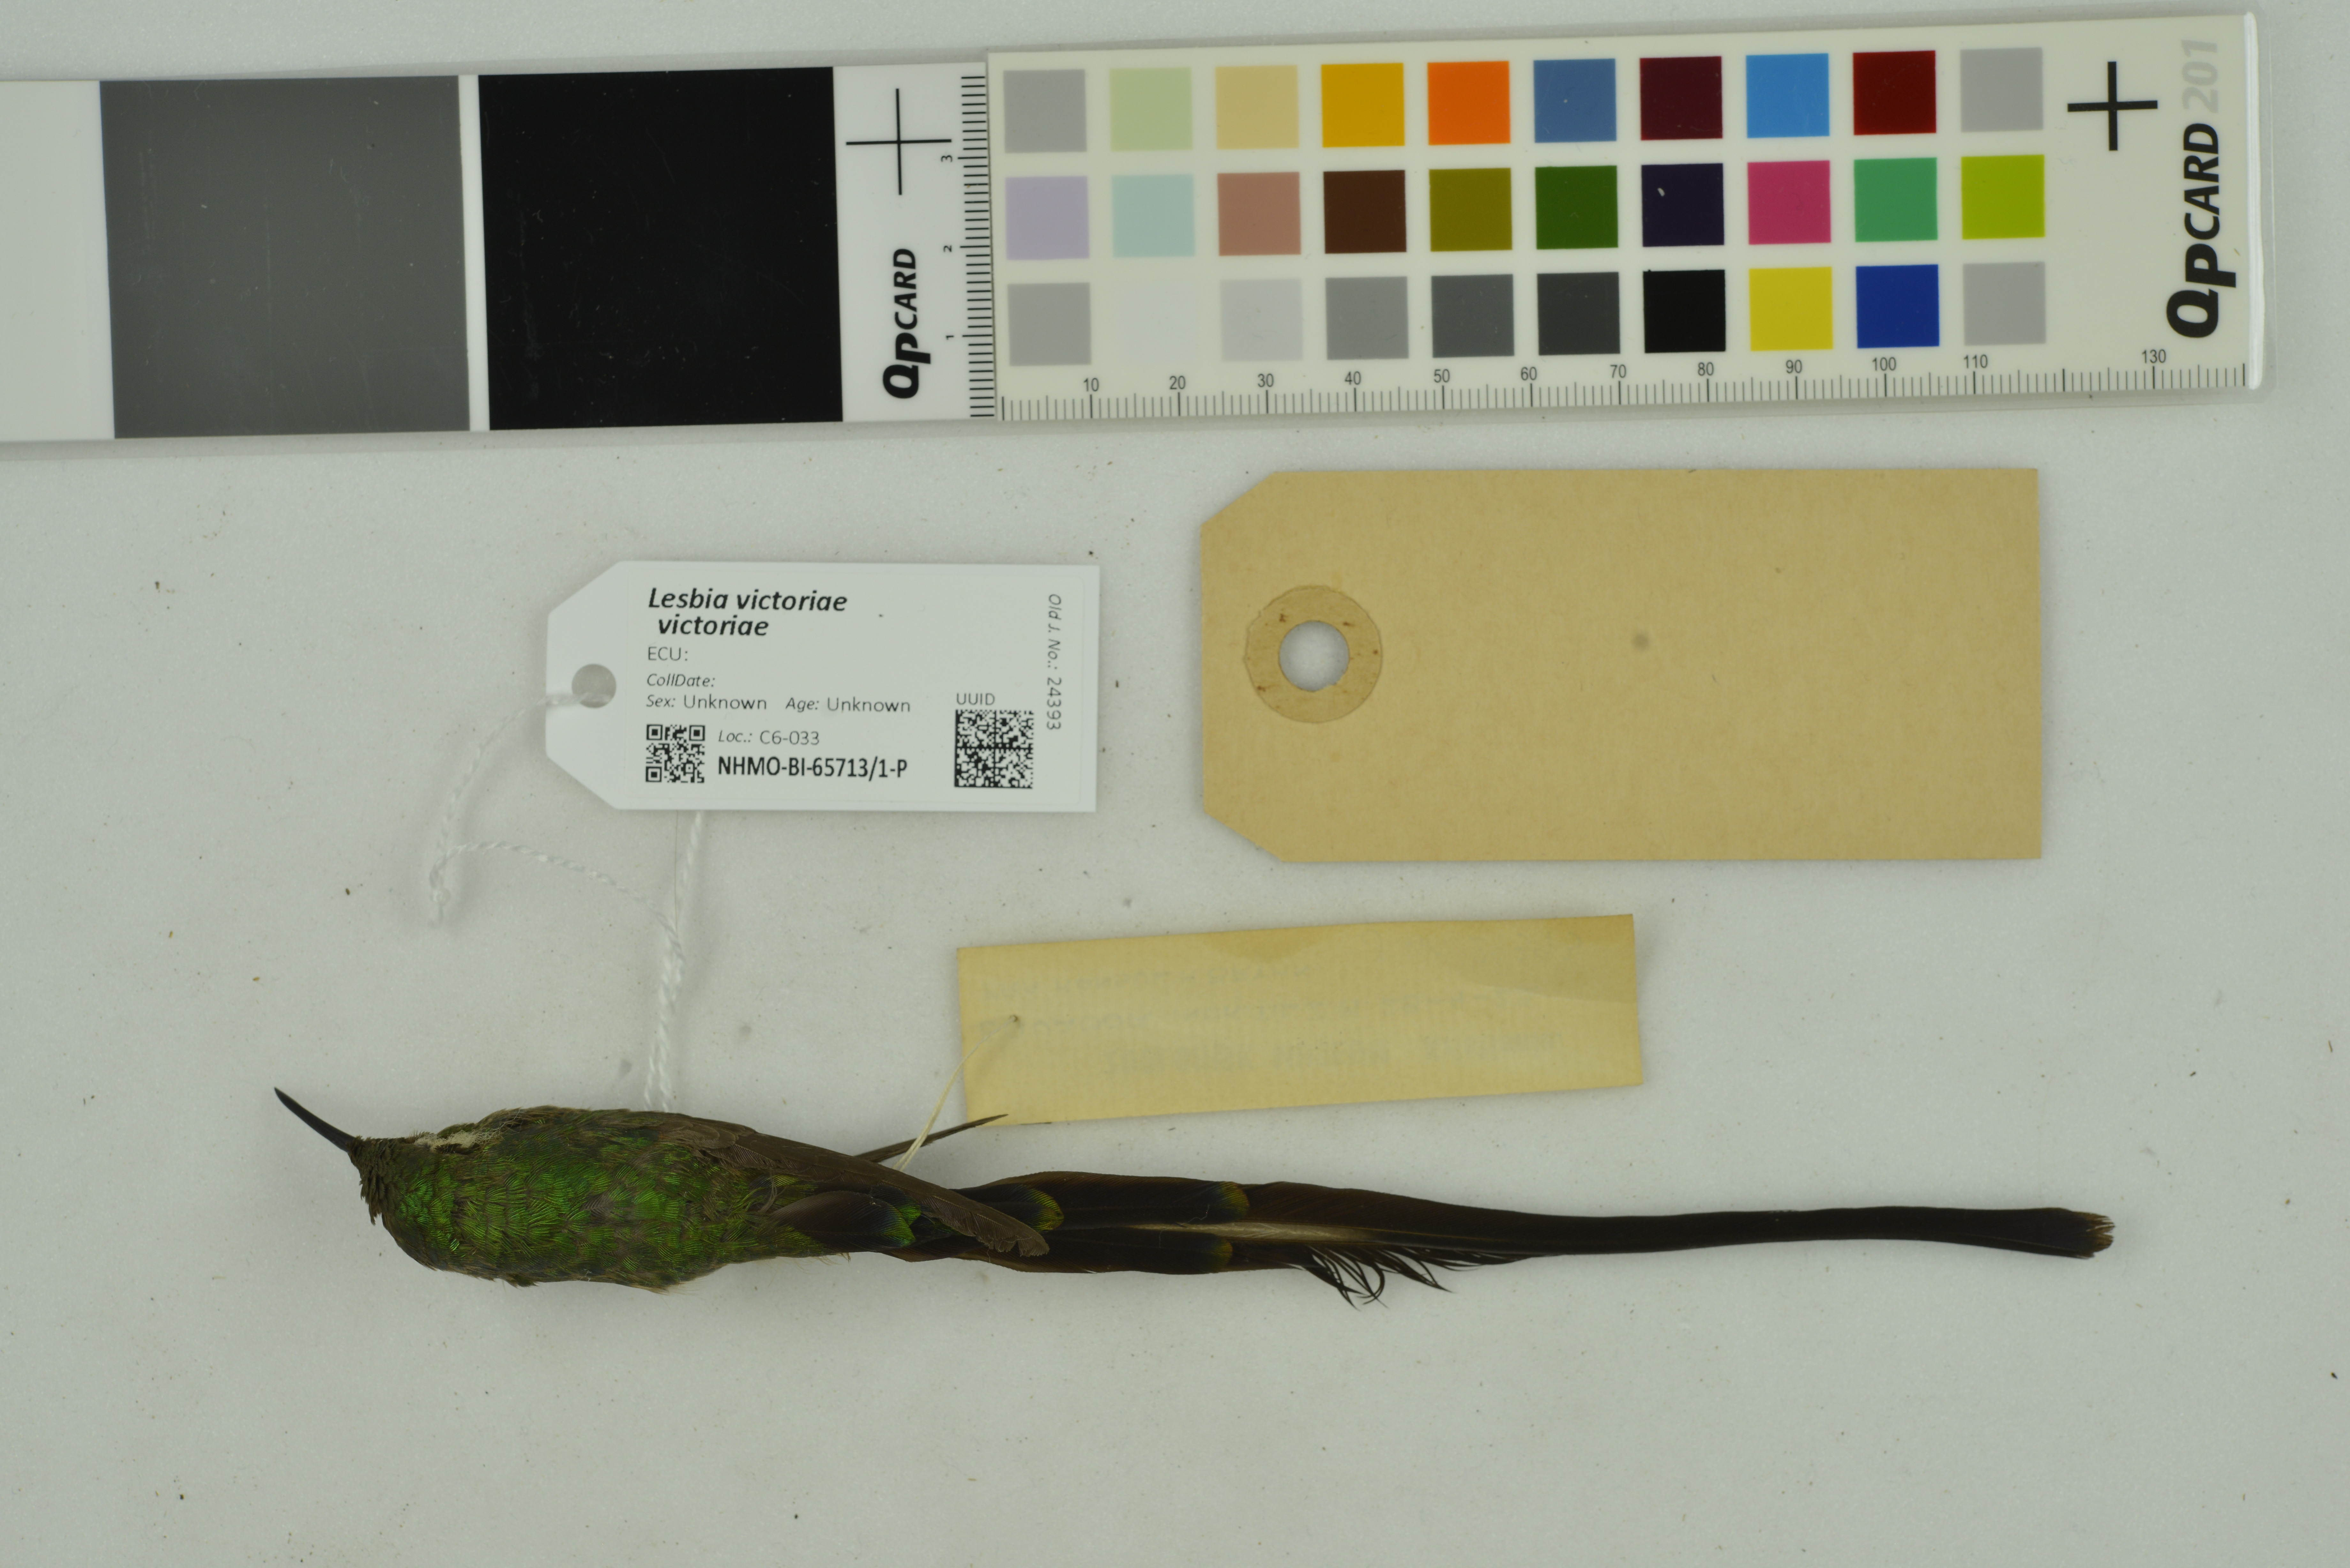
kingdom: Animalia
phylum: Chordata
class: Aves
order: Apodiformes
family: Trochilidae
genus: Lesbia
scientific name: Lesbia victoriae
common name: Black-tailed trainbearer
